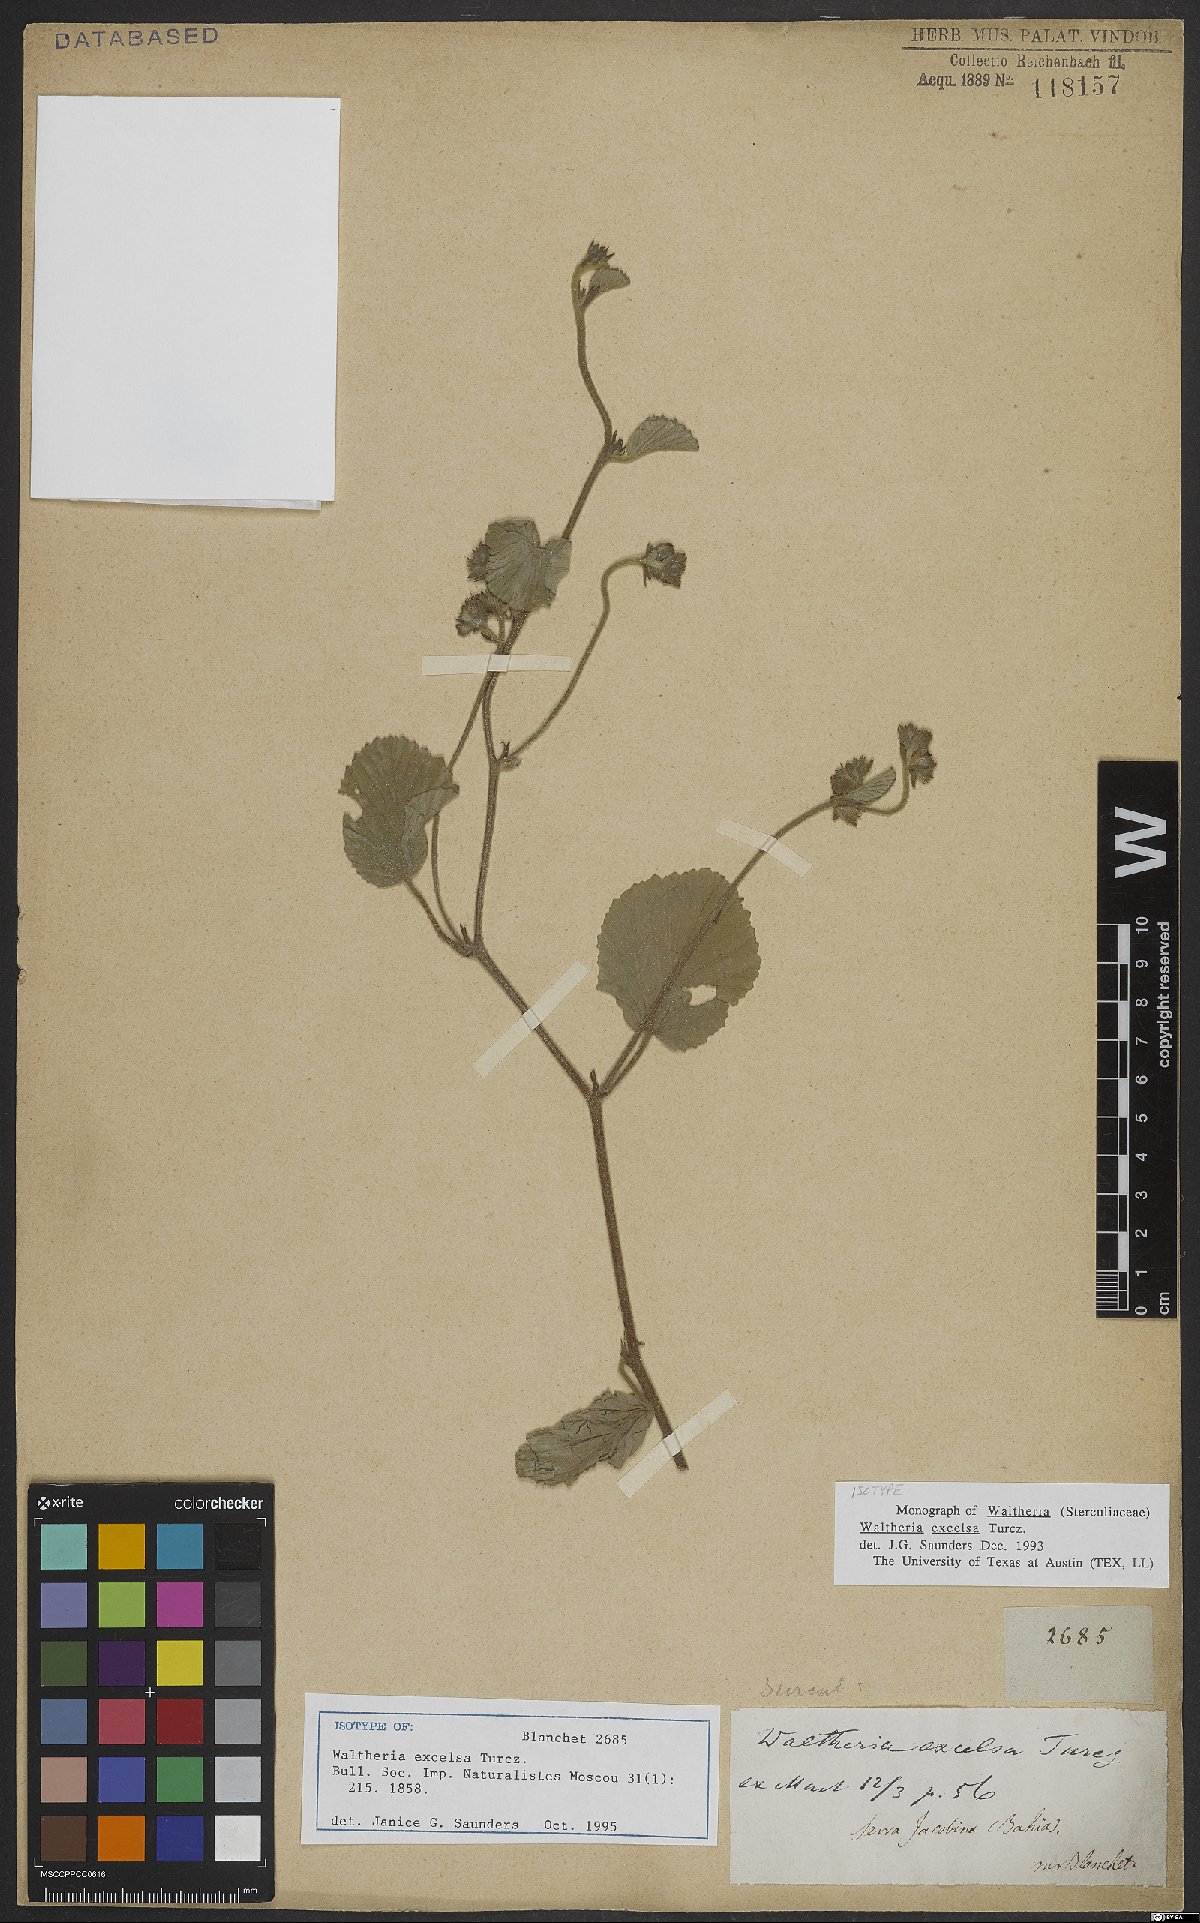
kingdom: Plantae
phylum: Tracheophyta
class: Magnoliopsida
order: Malvales
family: Malvaceae
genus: Waltheria
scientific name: Waltheria excelsa
